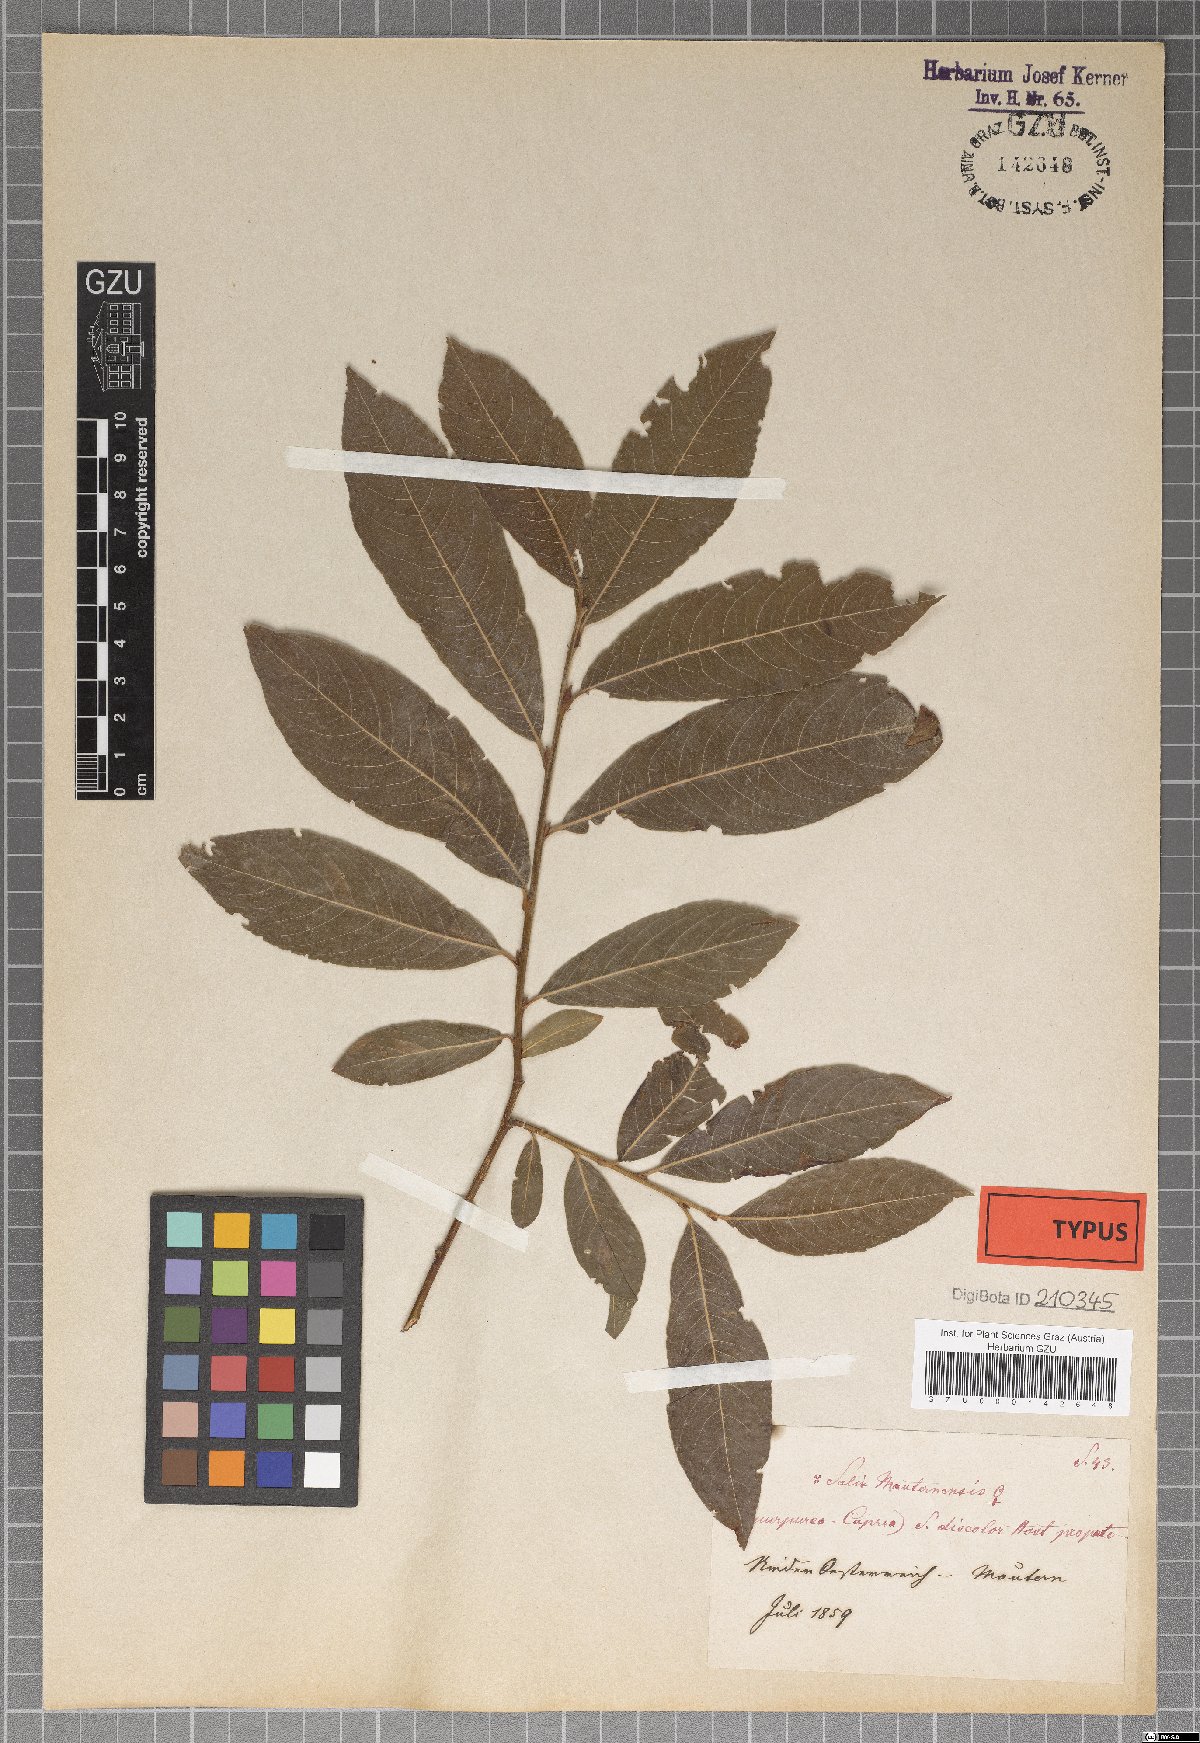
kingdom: Plantae
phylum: Tracheophyta
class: Magnoliopsida
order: Malpighiales
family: Salicaceae
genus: Salix
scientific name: Salix wimmeriana
